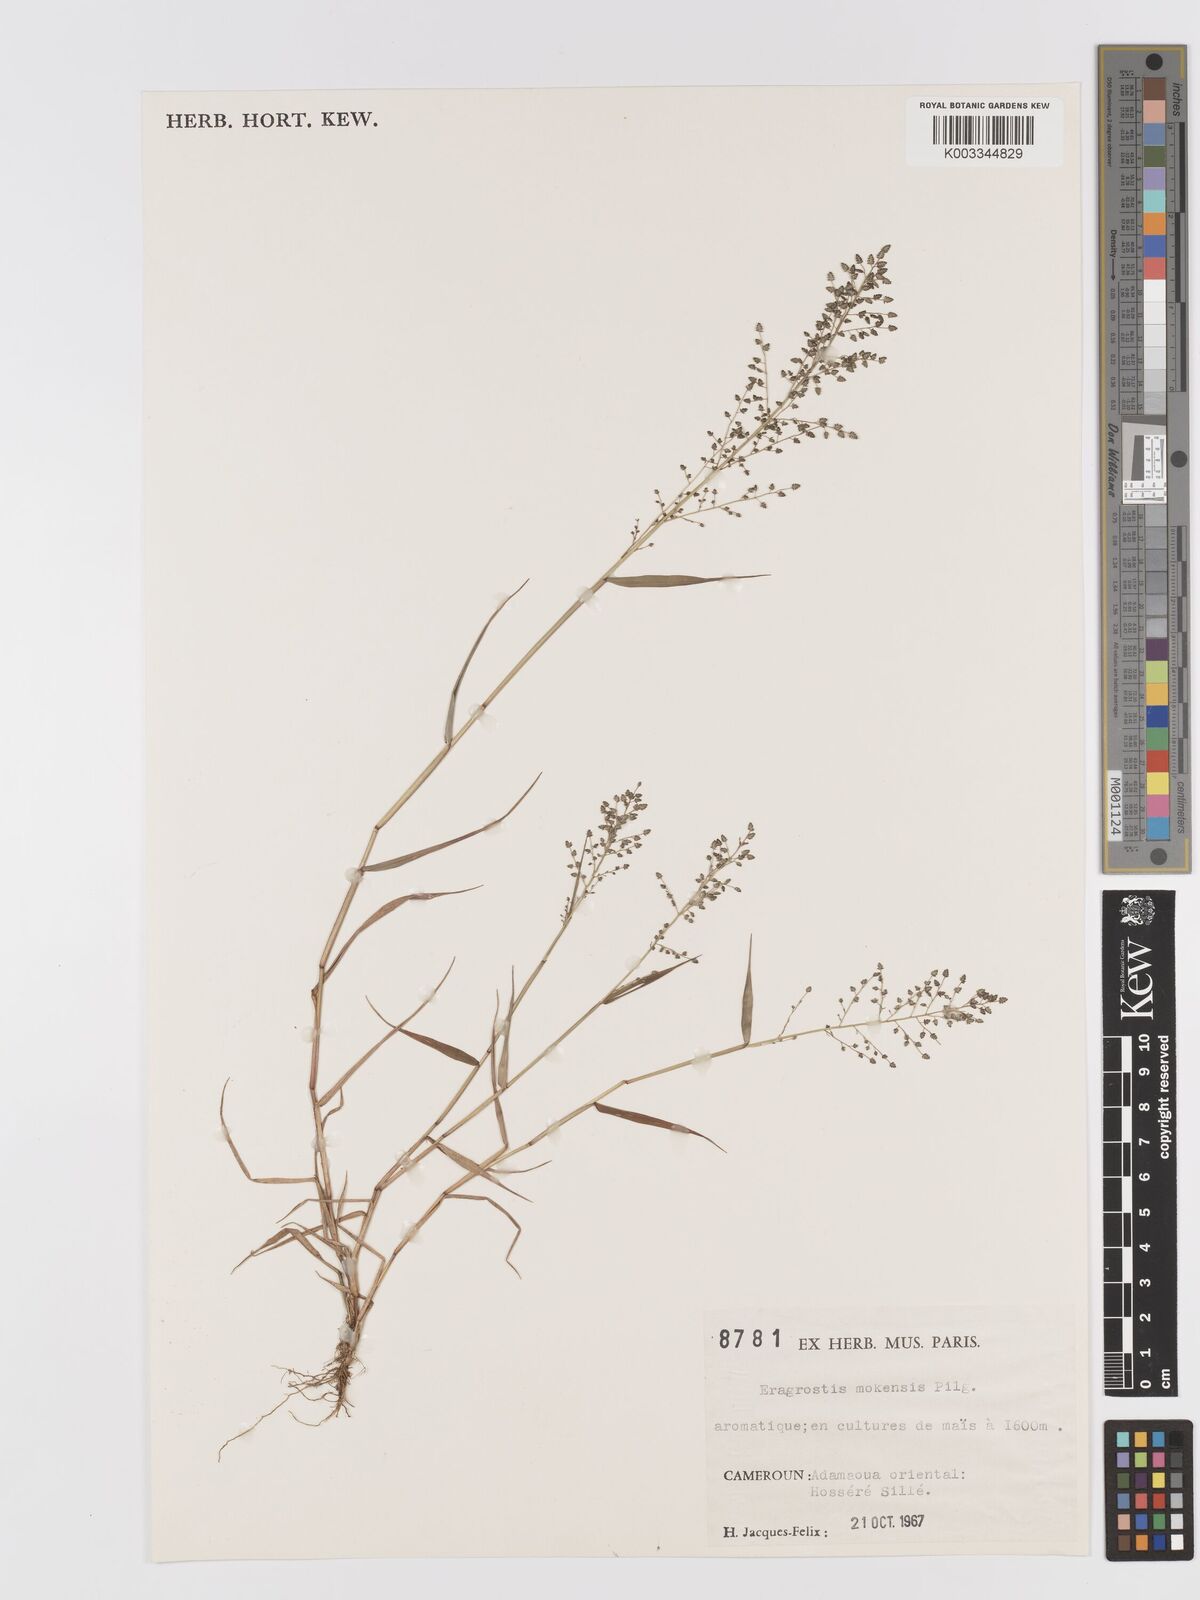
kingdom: Plantae
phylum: Tracheophyta
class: Liliopsida
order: Poales
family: Poaceae
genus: Eragrostis
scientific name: Eragrostis mokensis
